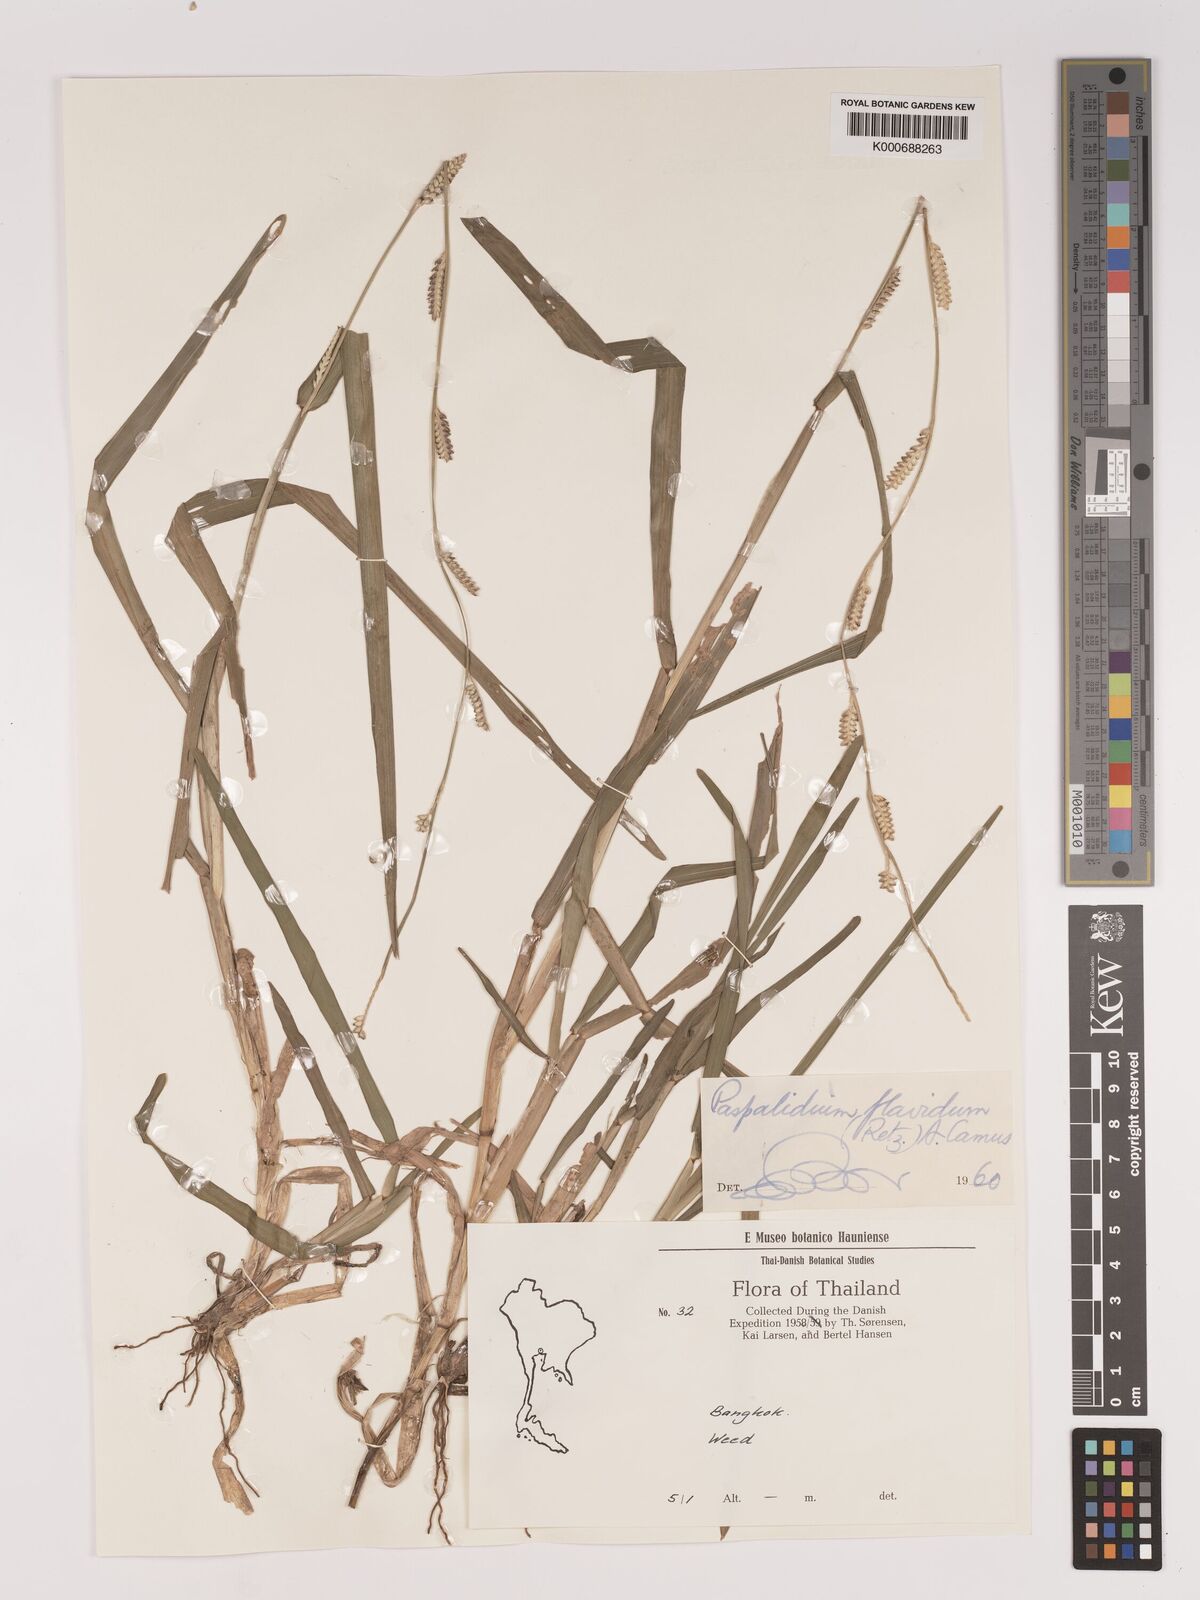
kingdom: Plantae
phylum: Tracheophyta
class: Liliopsida
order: Poales
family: Poaceae
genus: Setaria
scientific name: Setaria flavida
